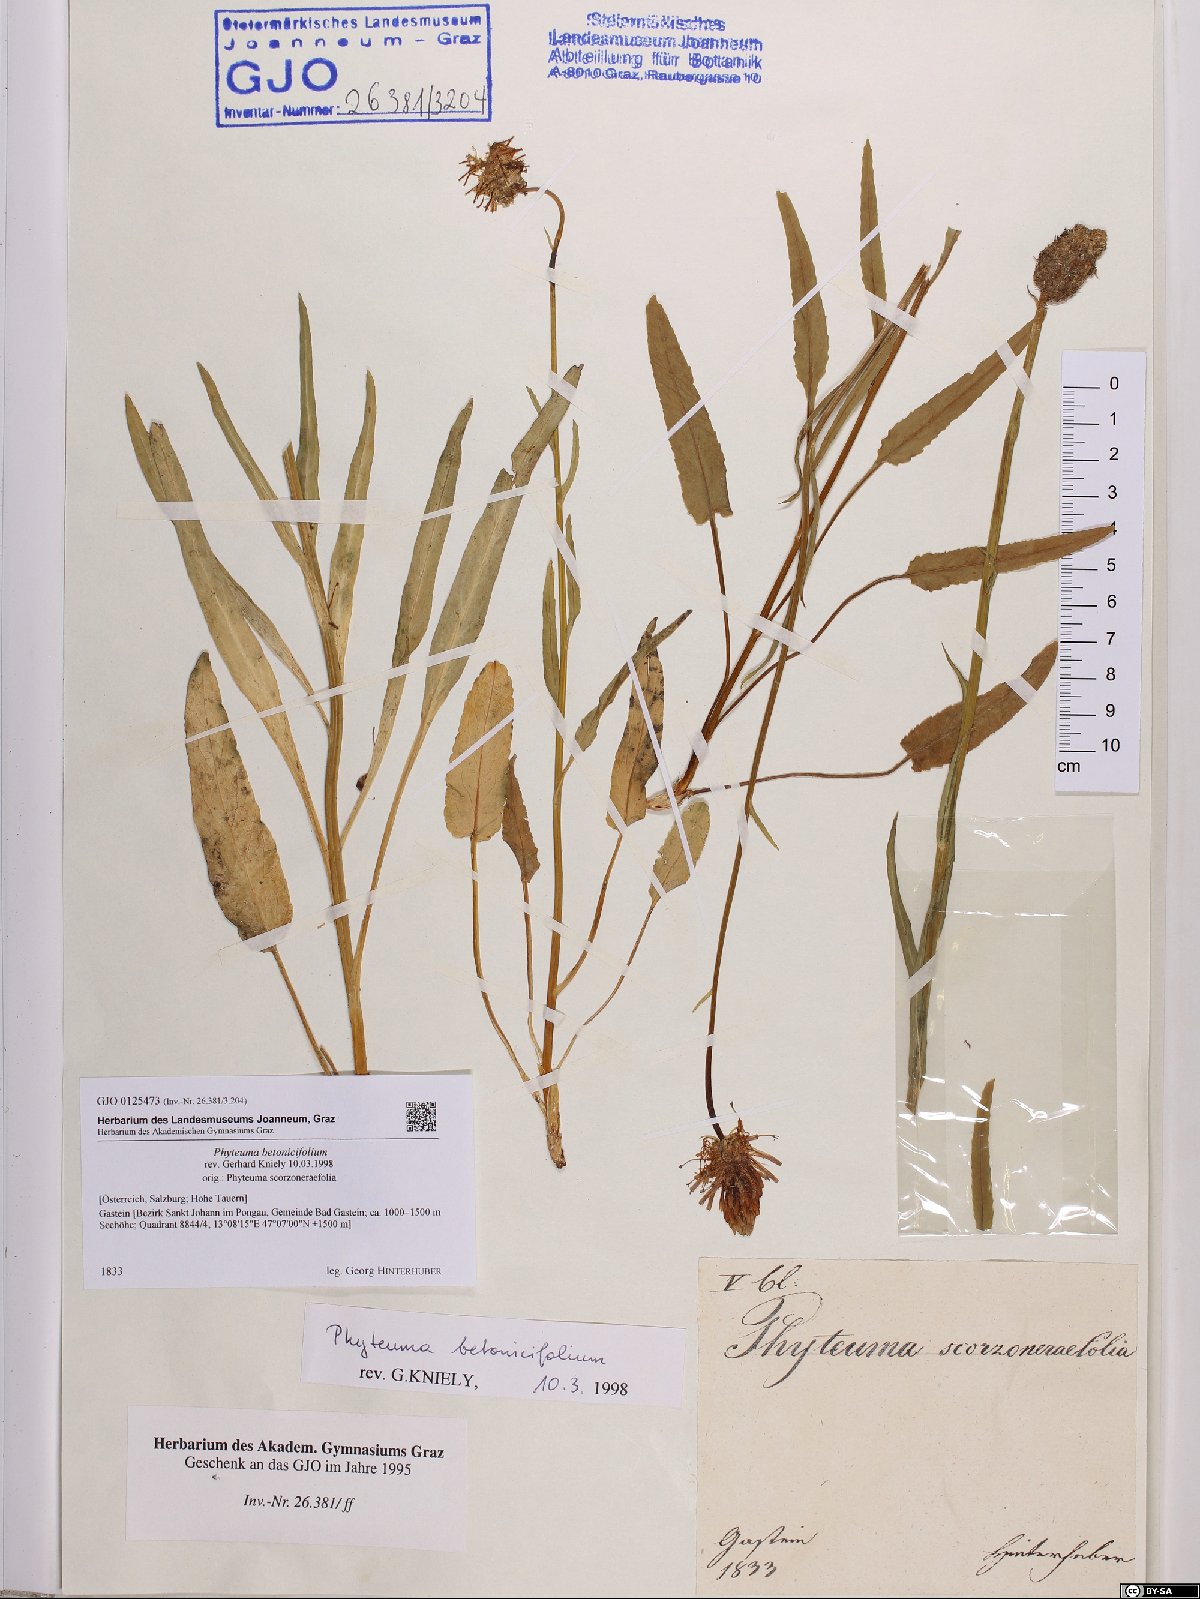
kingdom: Plantae
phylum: Tracheophyta
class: Magnoliopsida
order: Asterales
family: Campanulaceae
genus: Phyteuma
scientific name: Phyteuma betonicifolium
